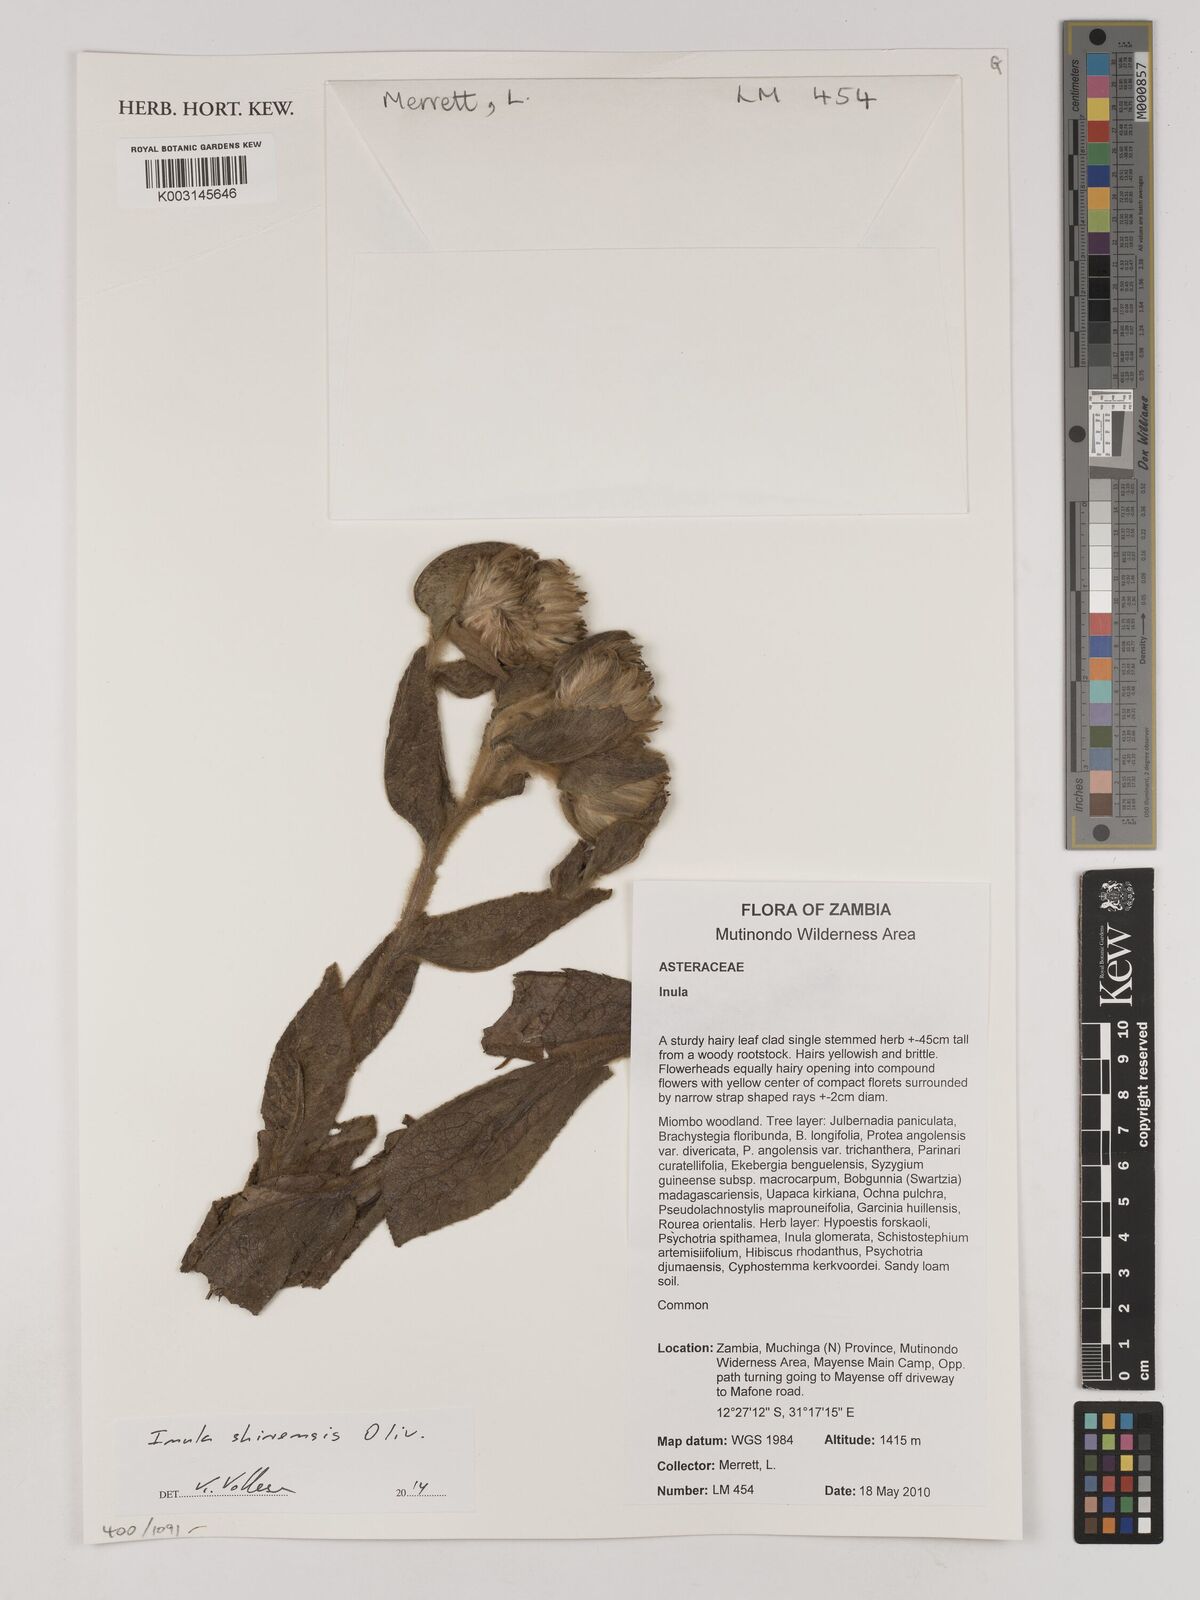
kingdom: Plantae
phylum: Tracheophyta
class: Magnoliopsida
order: Asterales
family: Asteraceae
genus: Monactinocephalus
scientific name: Monactinocephalus shirensis
